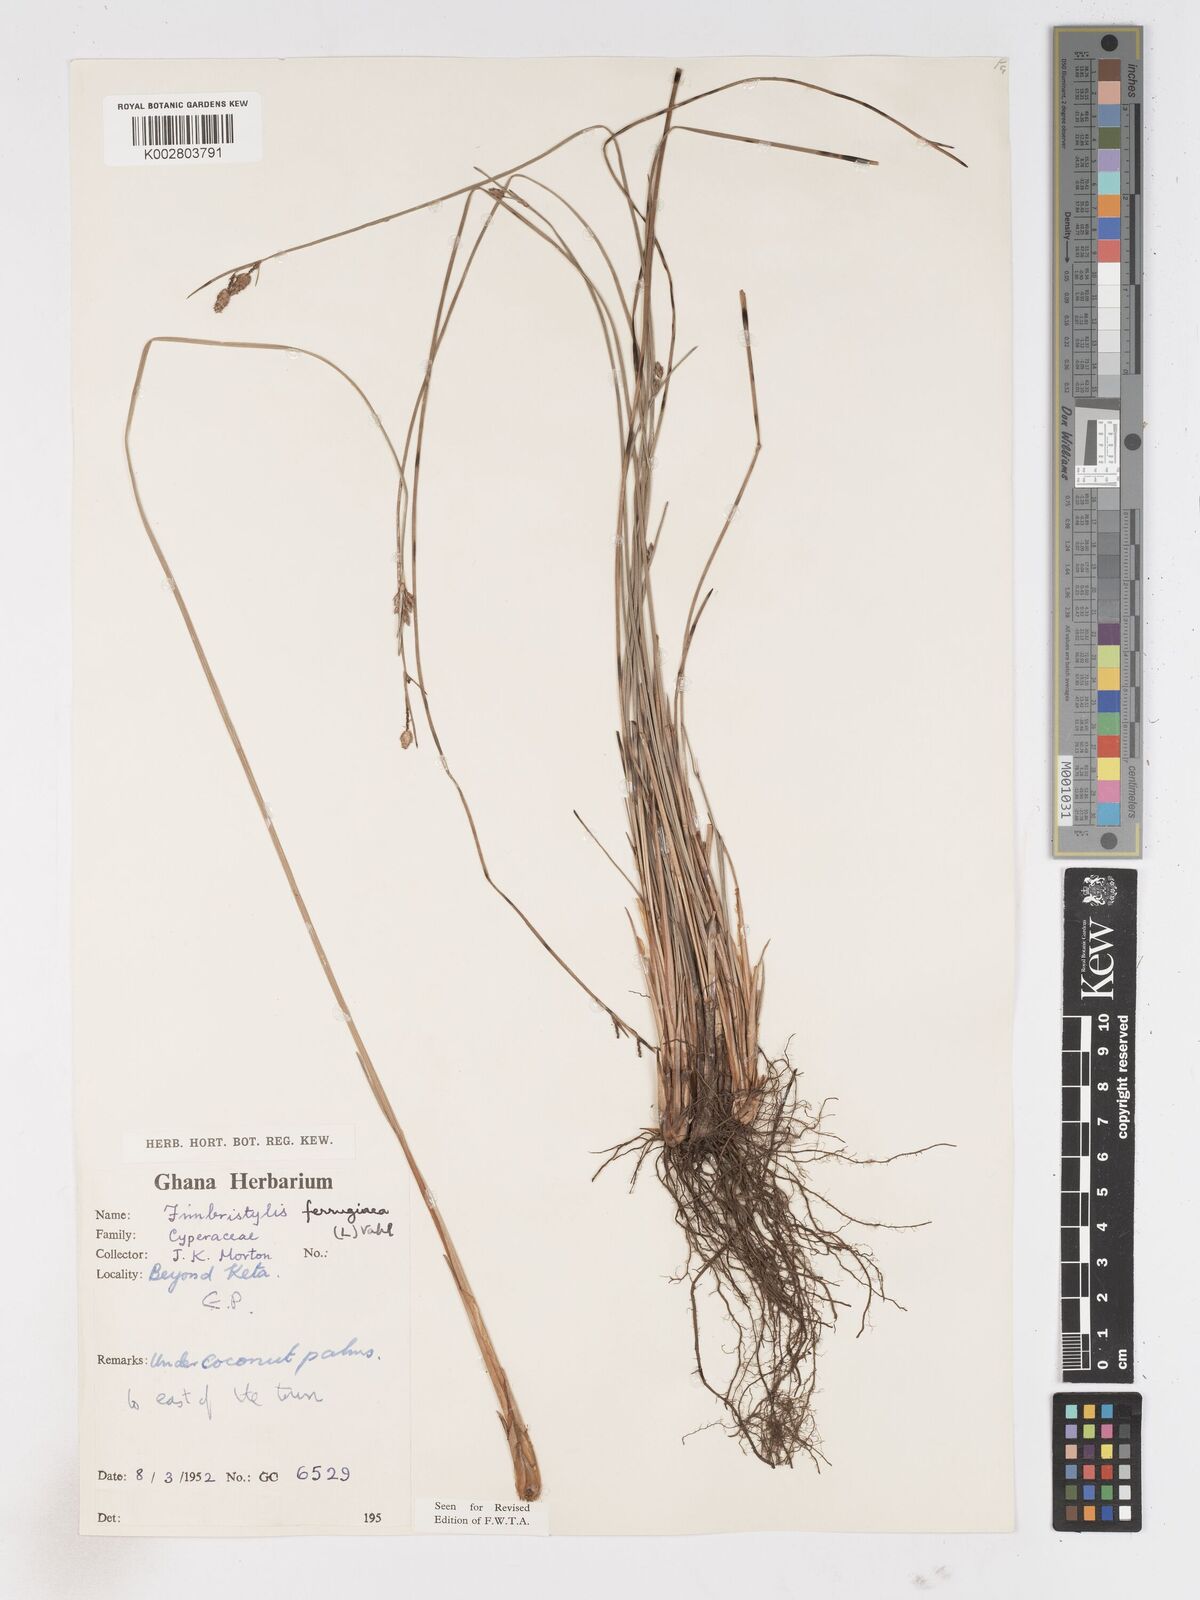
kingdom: Plantae
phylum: Tracheophyta
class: Liliopsida
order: Poales
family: Cyperaceae
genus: Fimbristylis
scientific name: Fimbristylis ferruginea
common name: West indian fimbry
